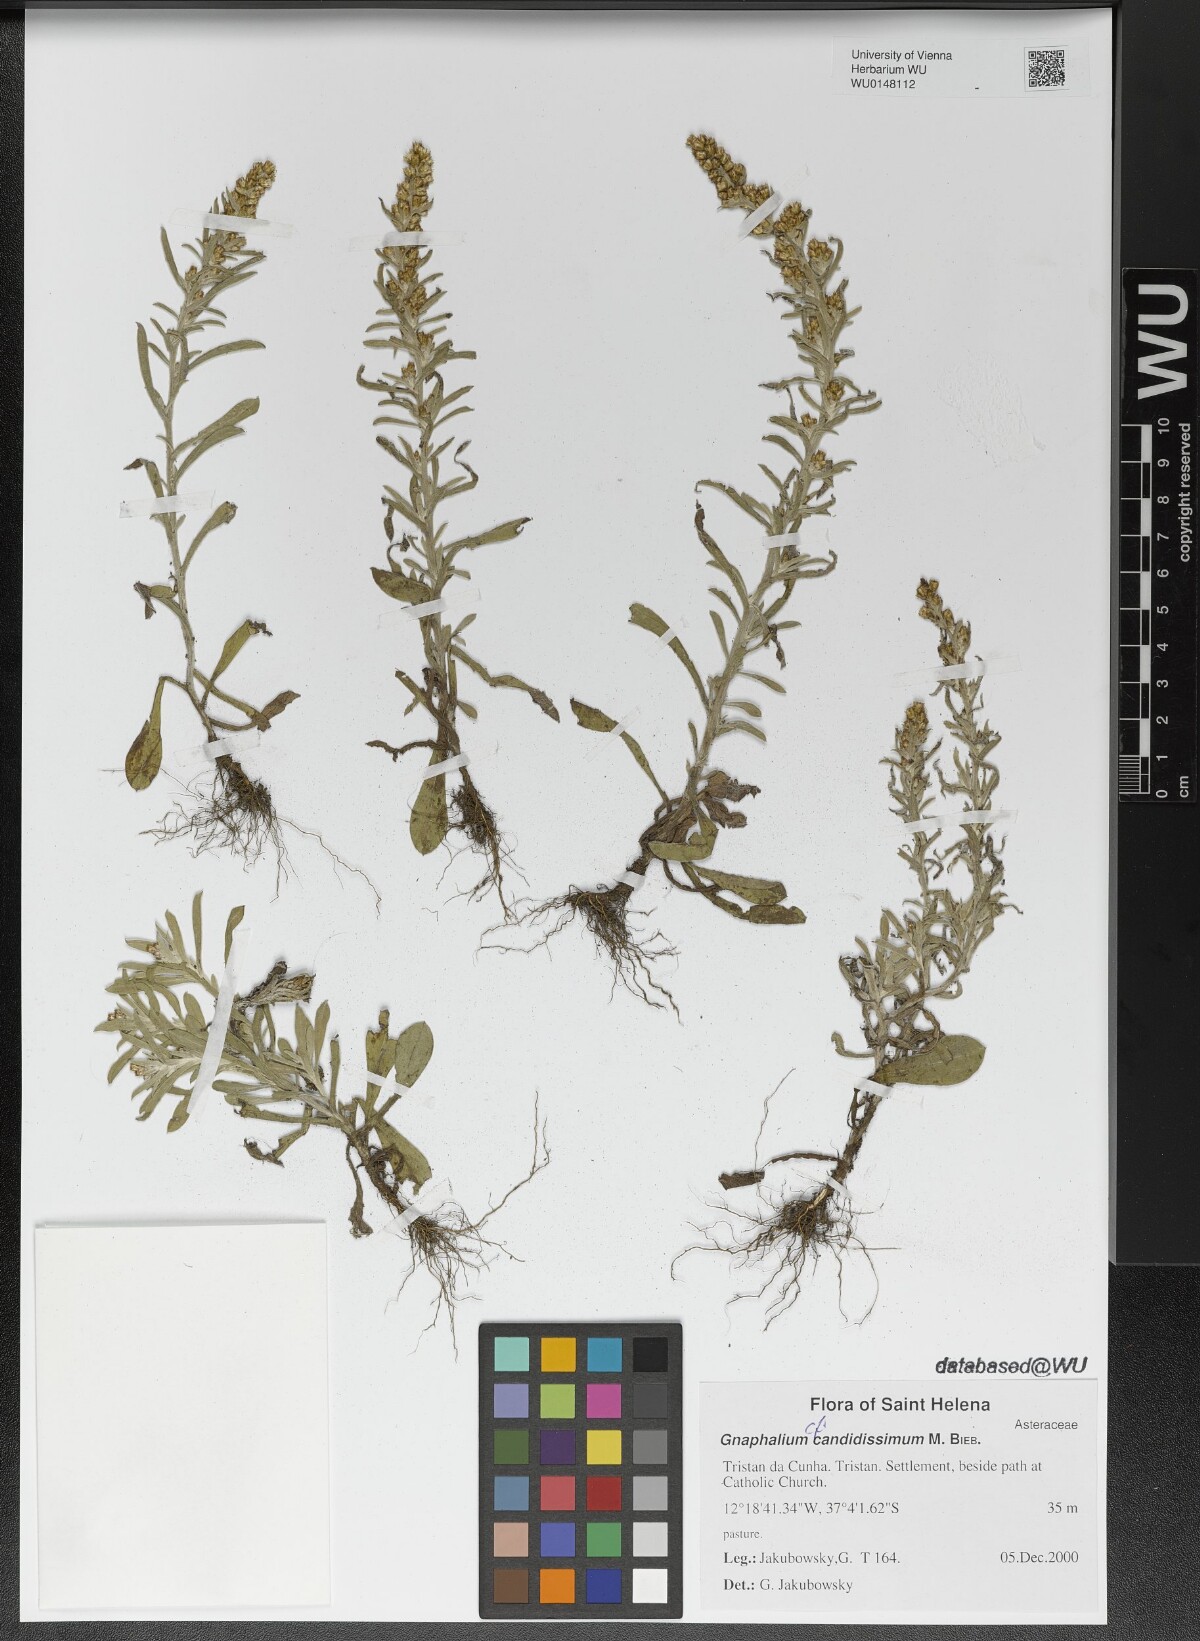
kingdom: Plantae
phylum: Tracheophyta
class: Magnoliopsida
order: Asterales
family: Asteraceae
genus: Cladochaeta
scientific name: Cladochaeta candissima
